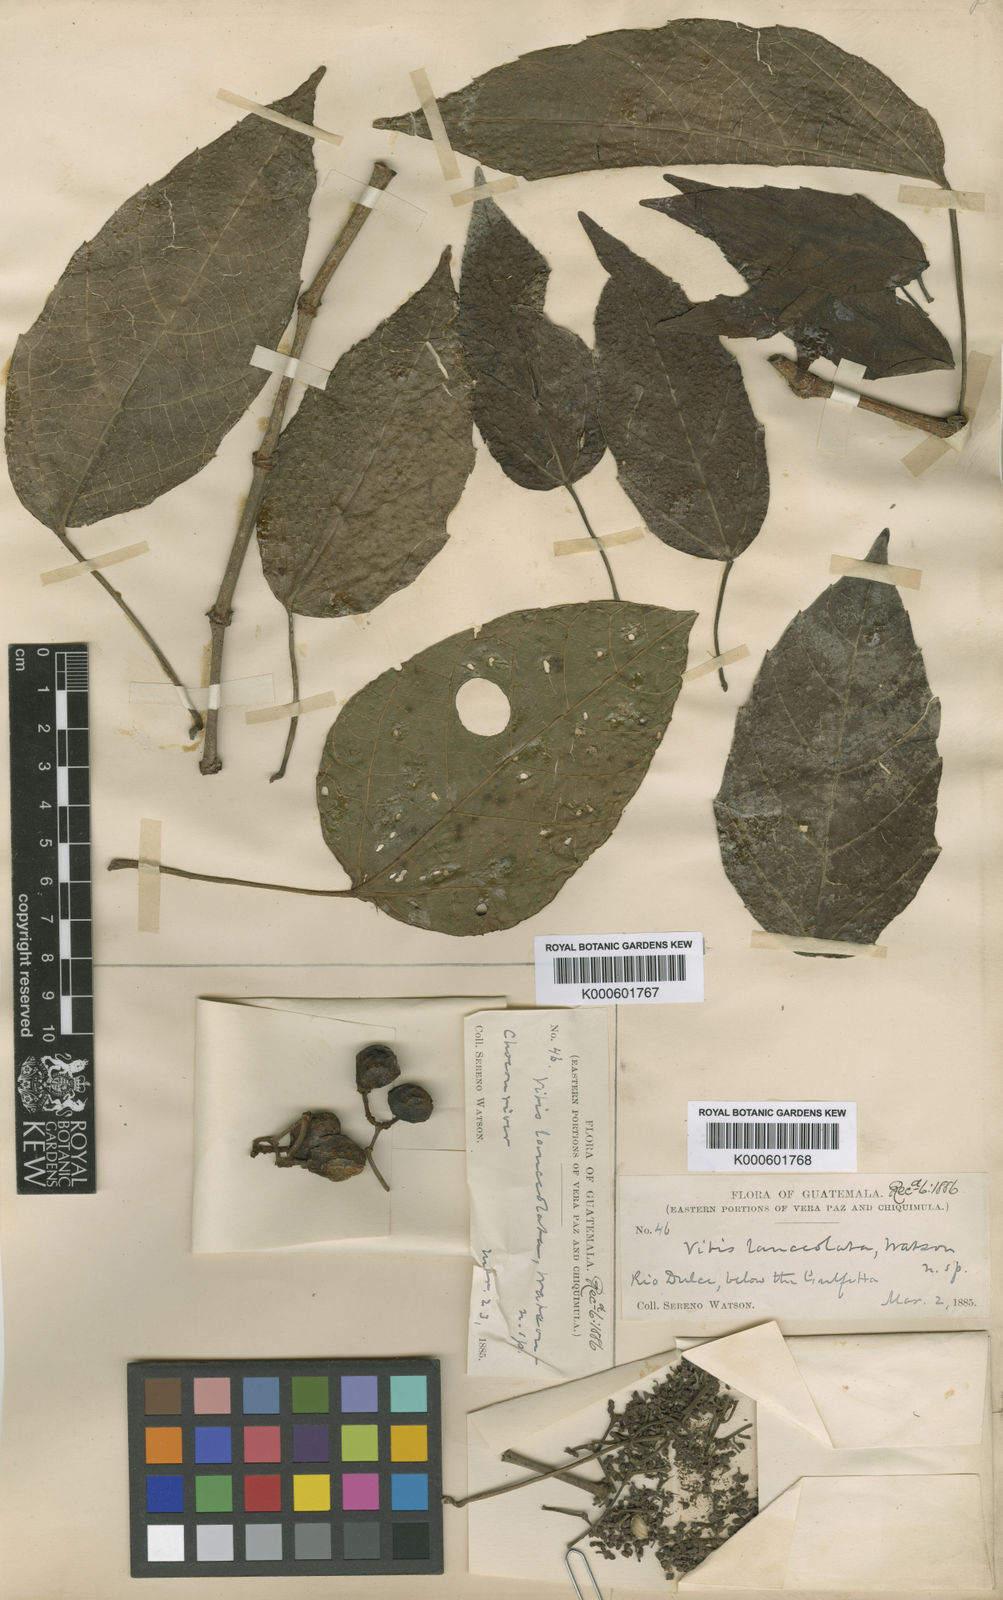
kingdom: Plantae
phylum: Tracheophyta
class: Magnoliopsida
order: Vitales
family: Vitaceae
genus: Clematicissus
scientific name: Clematicissus striata
